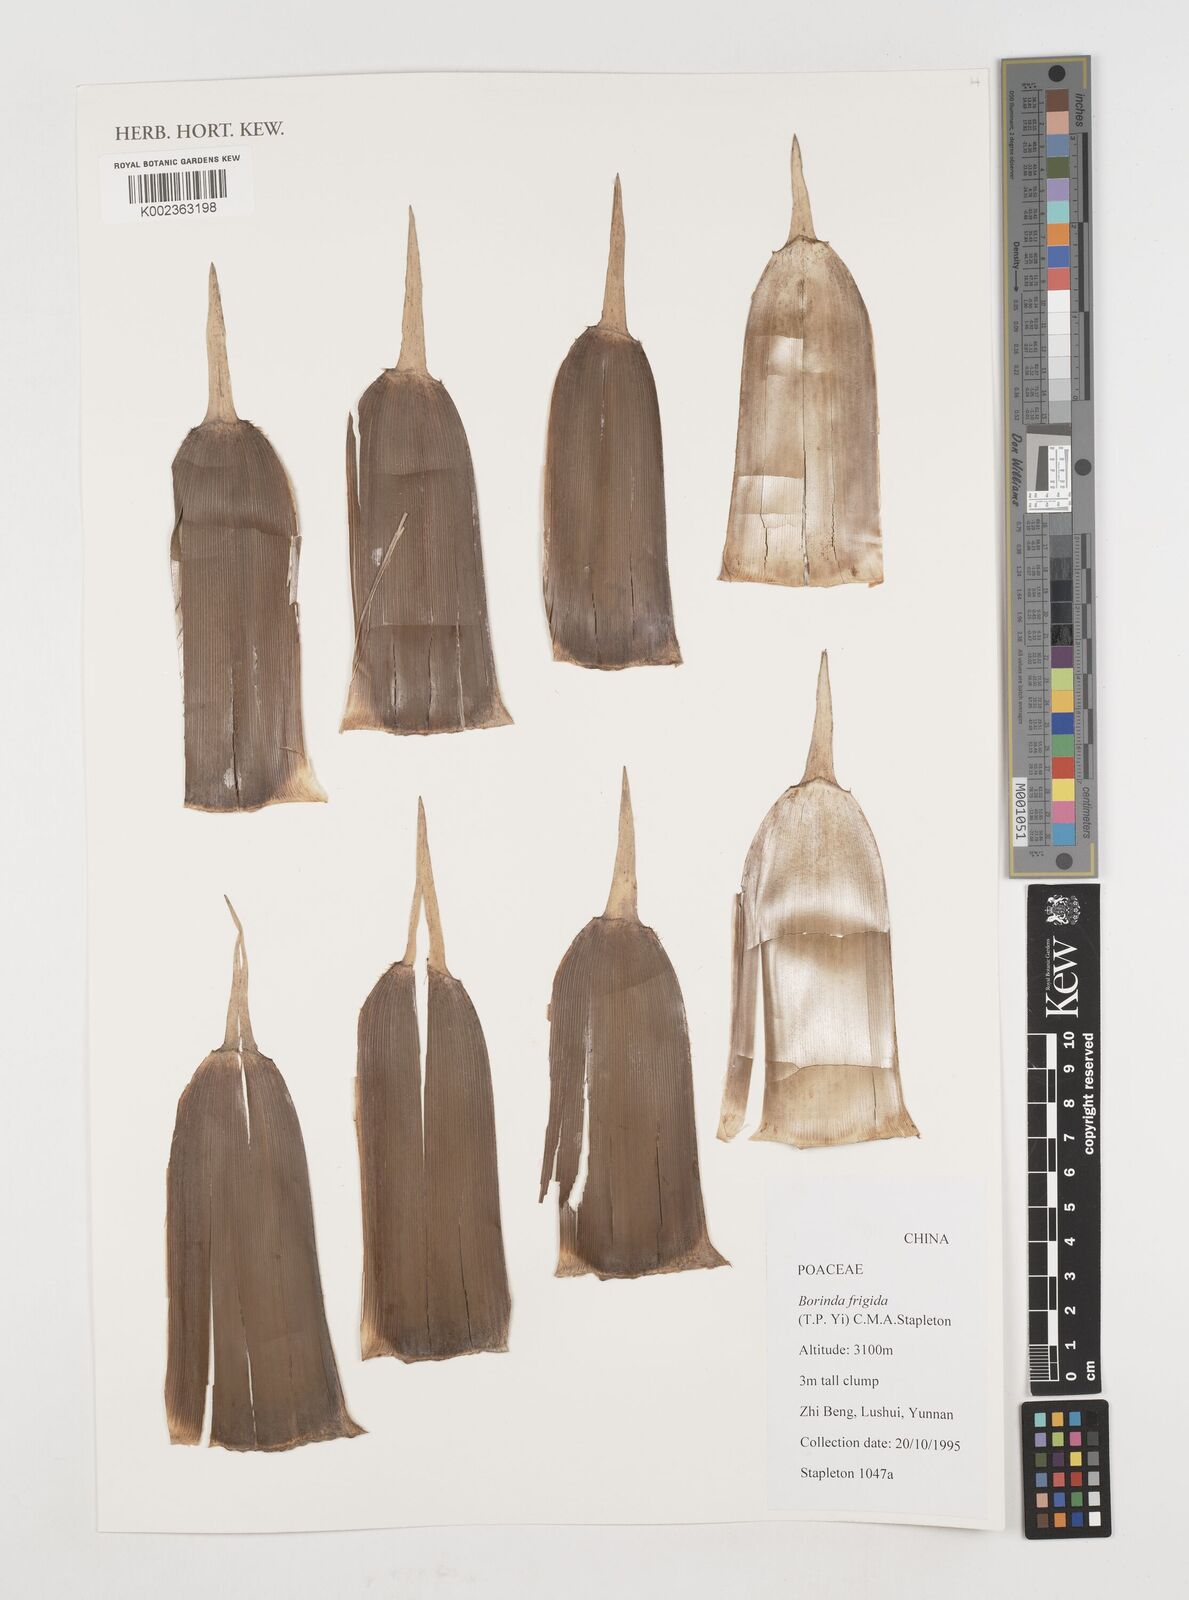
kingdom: Plantae
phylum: Tracheophyta
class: Liliopsida
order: Poales
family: Poaceae
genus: Fargesia
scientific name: Fargesia
